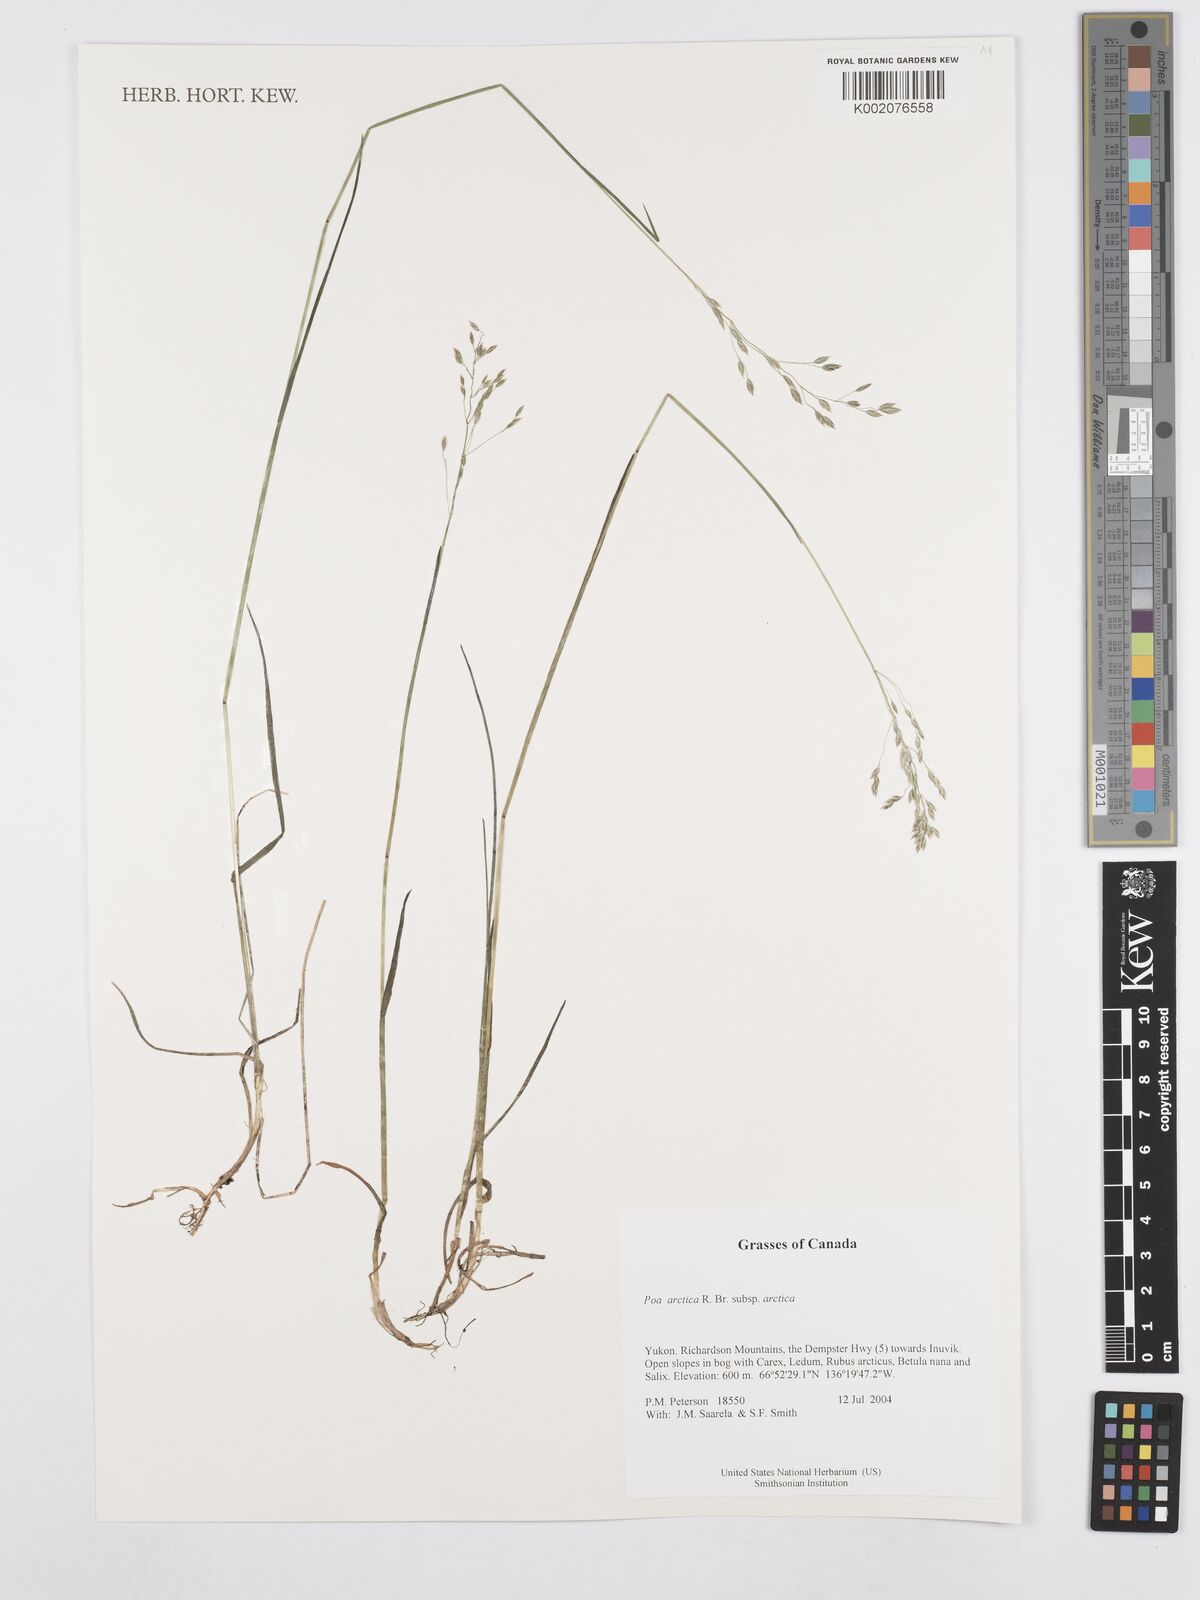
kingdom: Plantae
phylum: Tracheophyta
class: Liliopsida
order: Poales
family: Poaceae
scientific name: Poaceae
